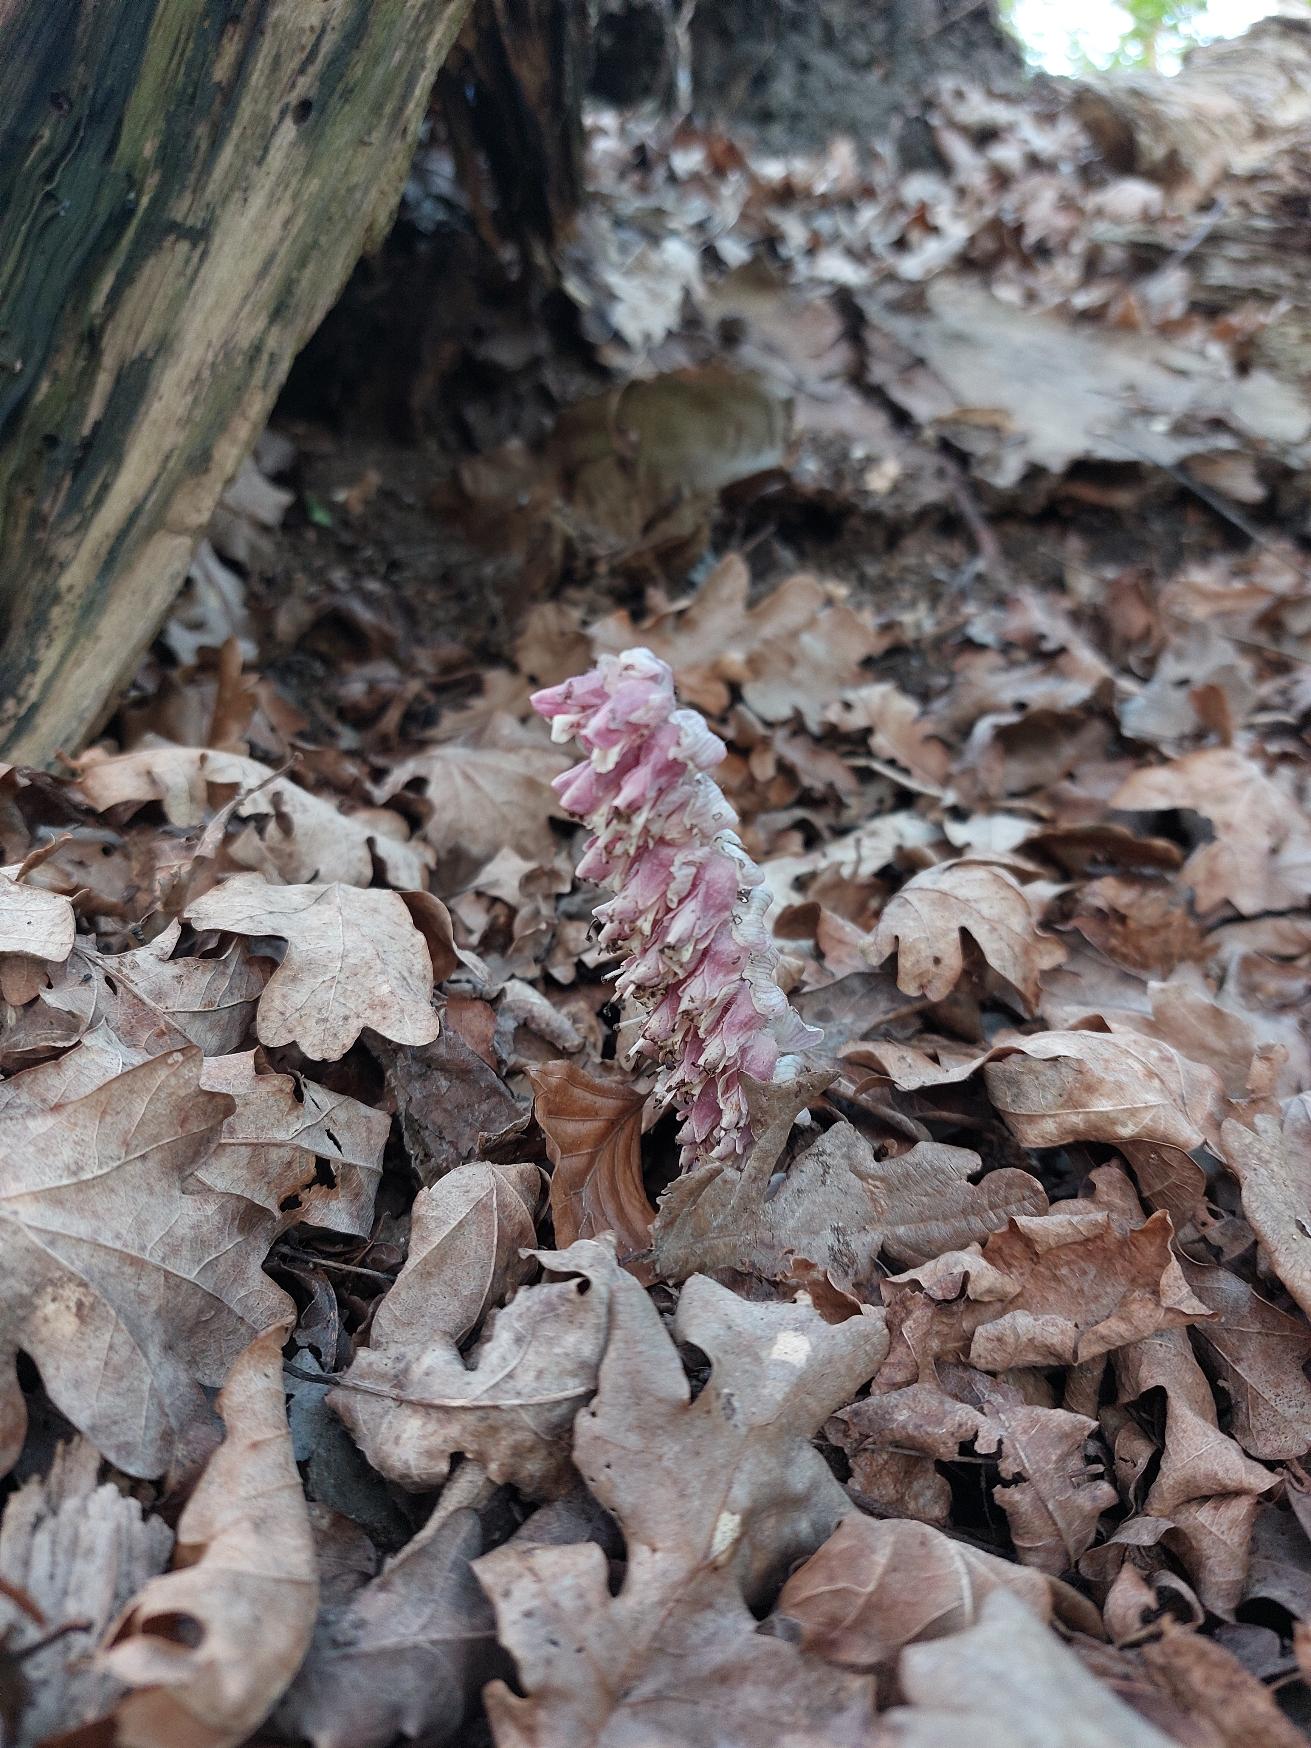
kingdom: Plantae
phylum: Tracheophyta
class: Magnoliopsida
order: Lamiales
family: Orobanchaceae
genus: Lathraea
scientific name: Lathraea squamaria
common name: Skælrod
